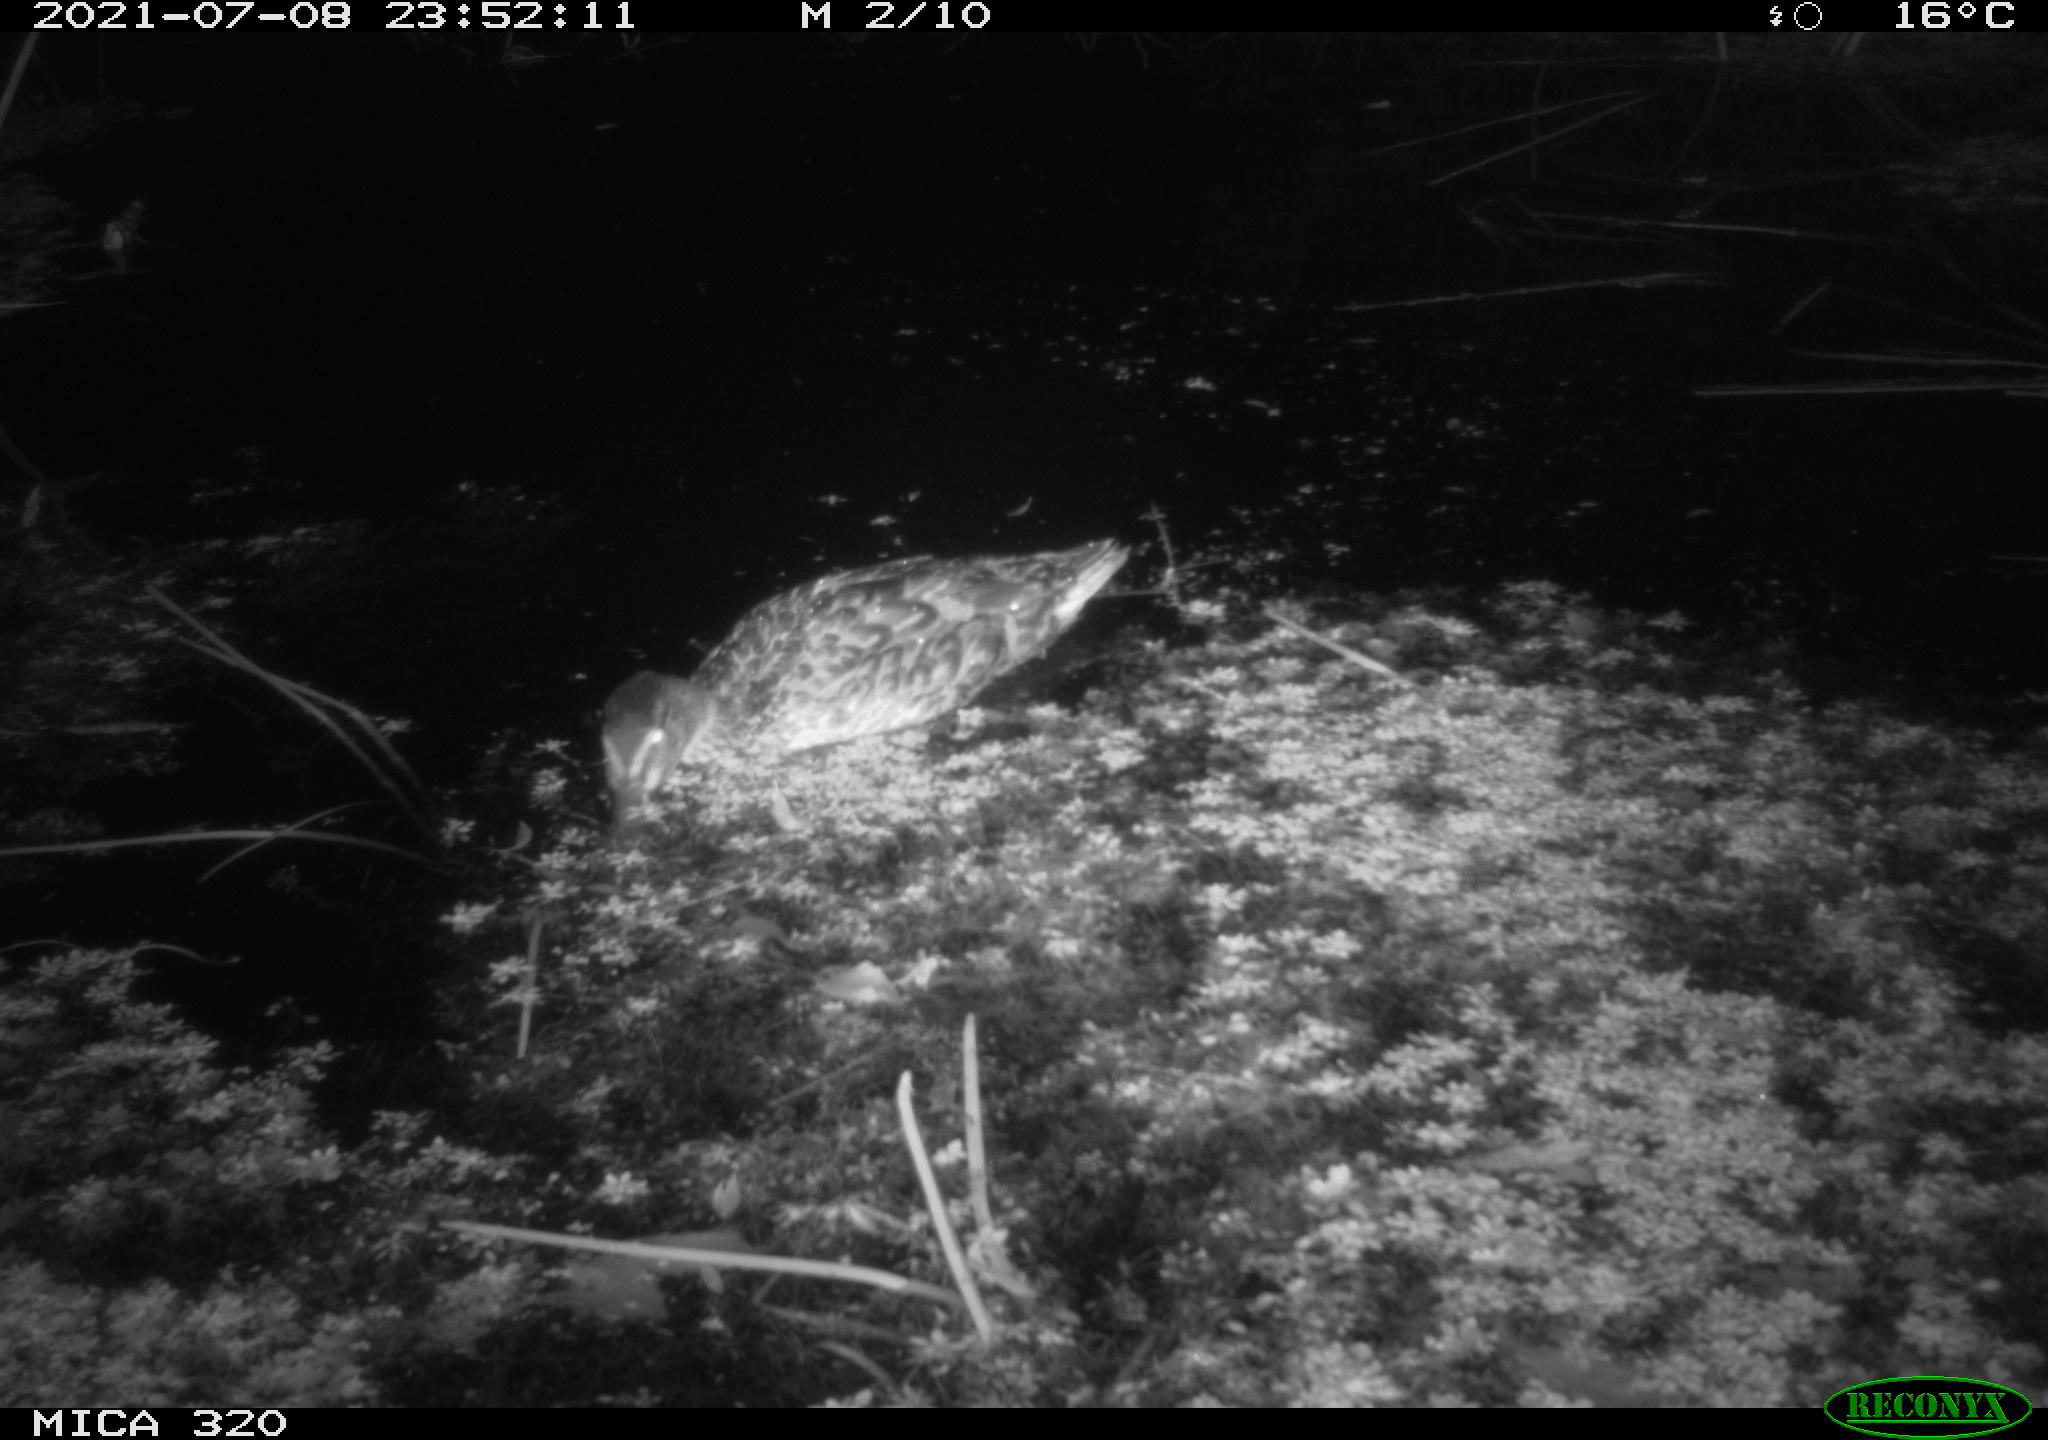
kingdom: Animalia
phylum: Chordata
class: Aves
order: Anseriformes
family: Anatidae
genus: Anas
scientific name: Anas platyrhynchos
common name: Mallard
